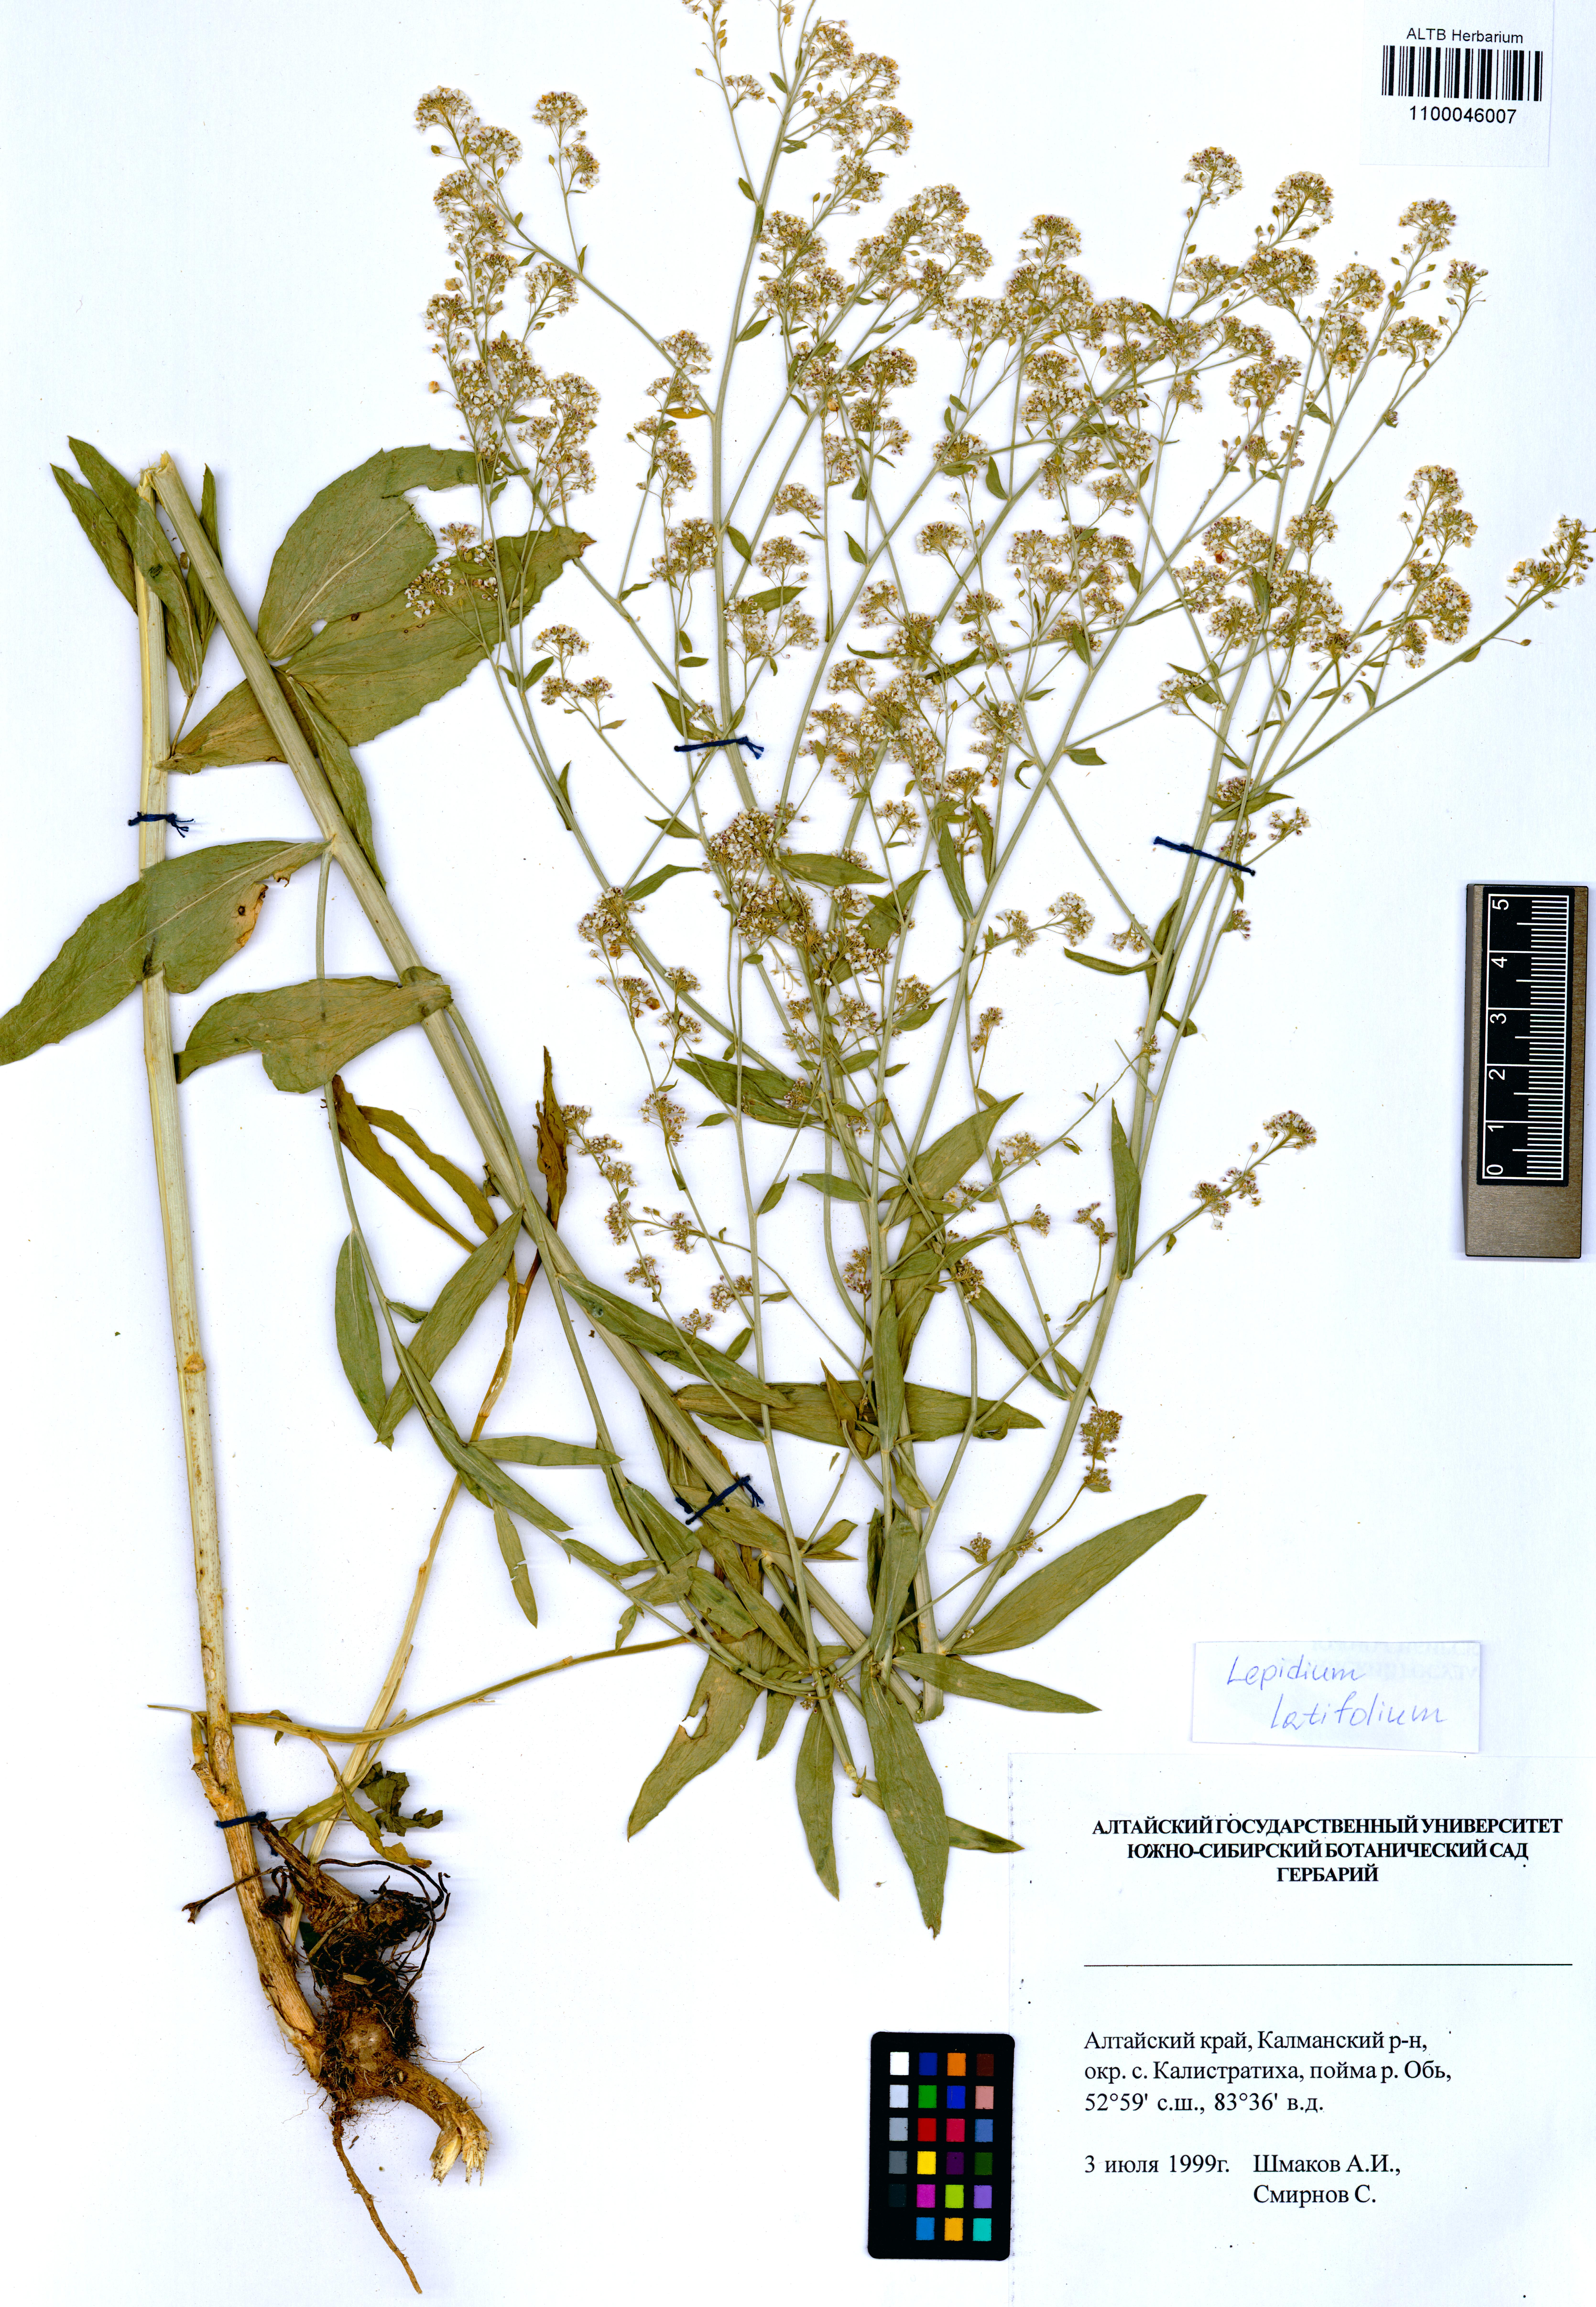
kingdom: Plantae
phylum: Tracheophyta
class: Magnoliopsida
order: Brassicales
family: Brassicaceae
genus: Lepidium
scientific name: Lepidium latifolium
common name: Dittander
